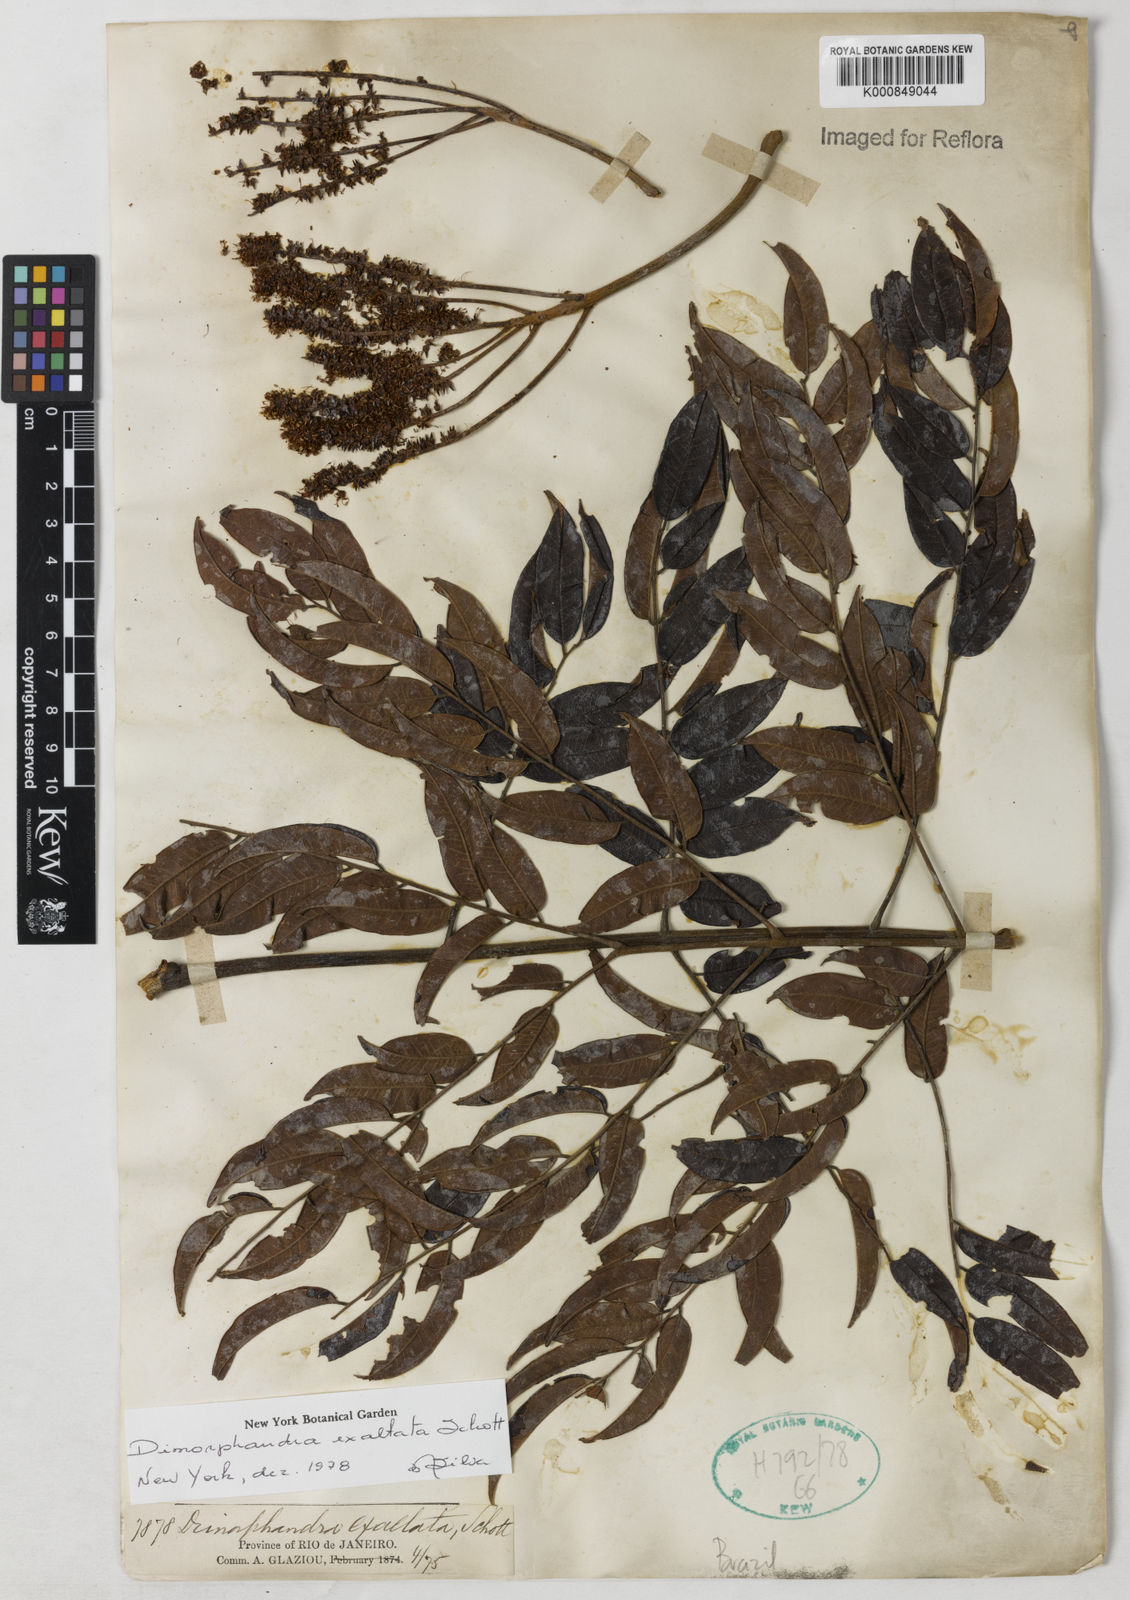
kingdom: Plantae
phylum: Tracheophyta
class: Magnoliopsida
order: Fabales
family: Fabaceae
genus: Dimorphandra
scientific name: Dimorphandra exaltata
